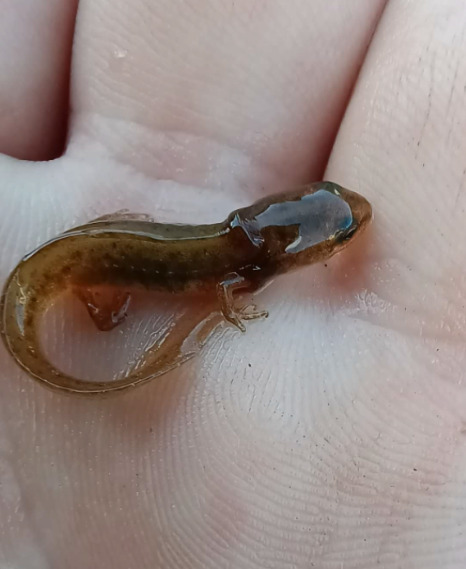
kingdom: Animalia
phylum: Chordata
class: Amphibia
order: Caudata
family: Salamandridae
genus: Lissotriton
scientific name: Lissotriton vulgaris
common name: Lille vandsalamander
